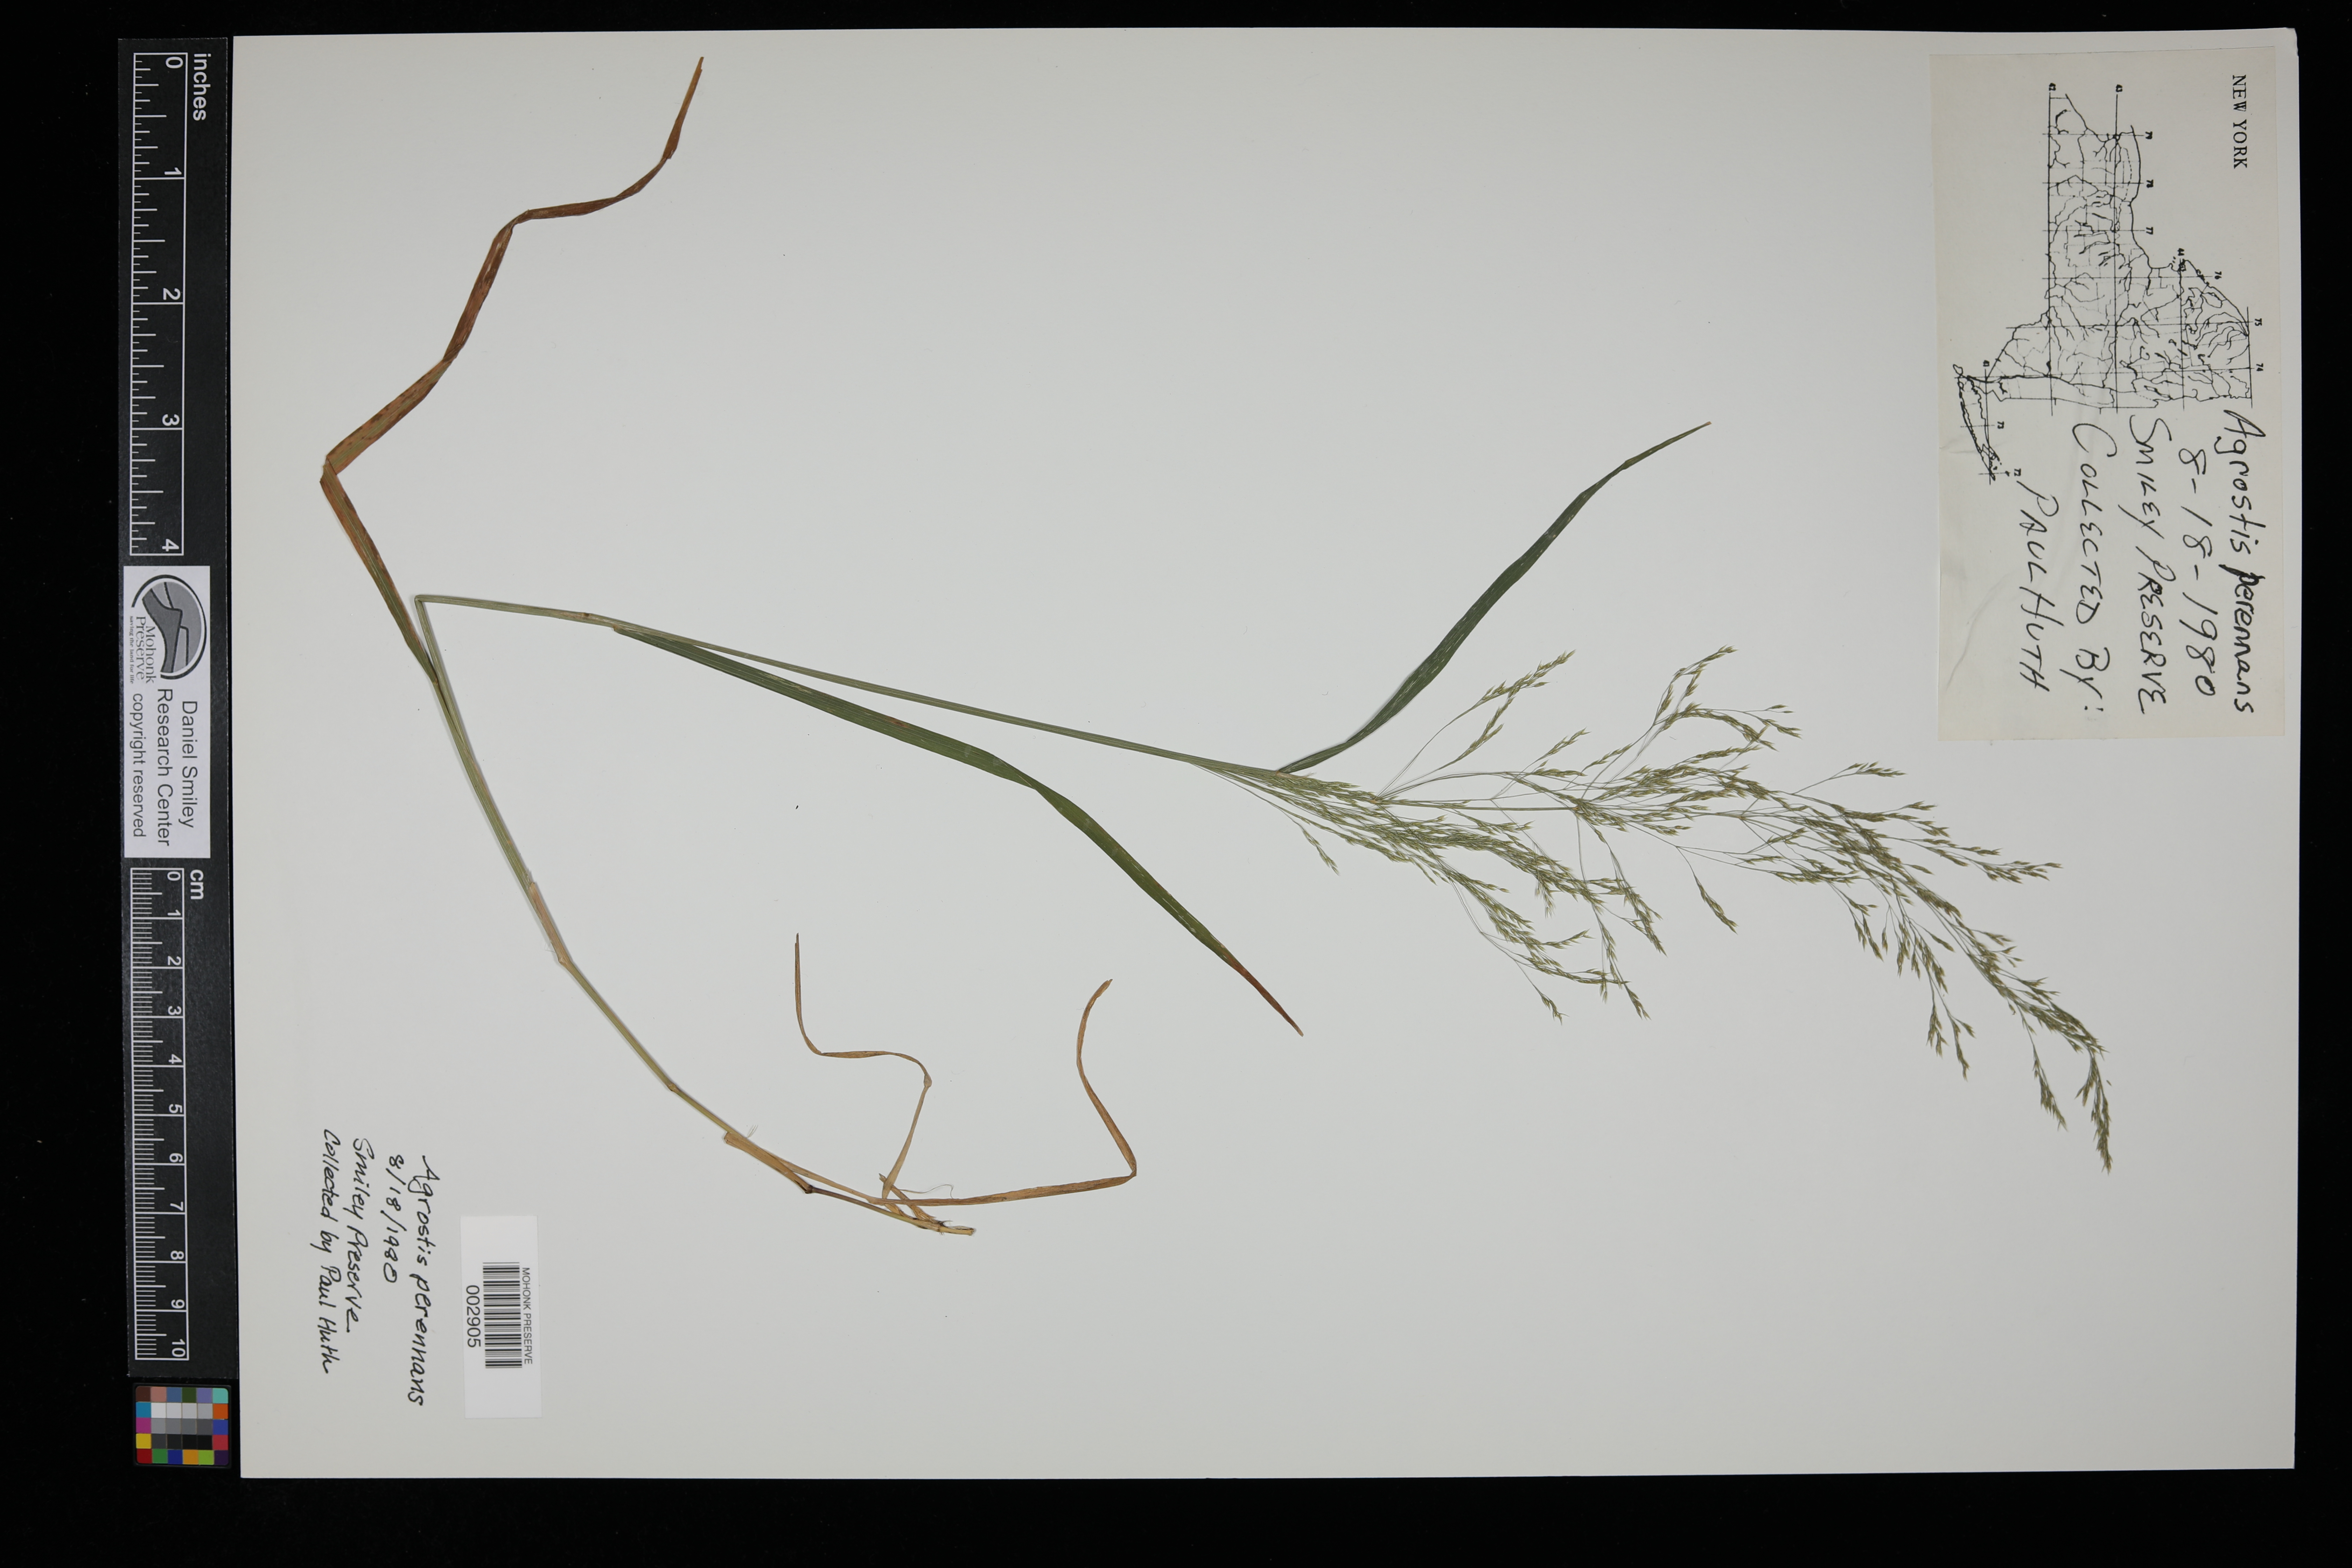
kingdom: Plantae
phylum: Tracheophyta
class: Liliopsida
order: Poales
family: Poaceae
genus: Agrostis
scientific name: Agrostis perennans
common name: Autumn bent
